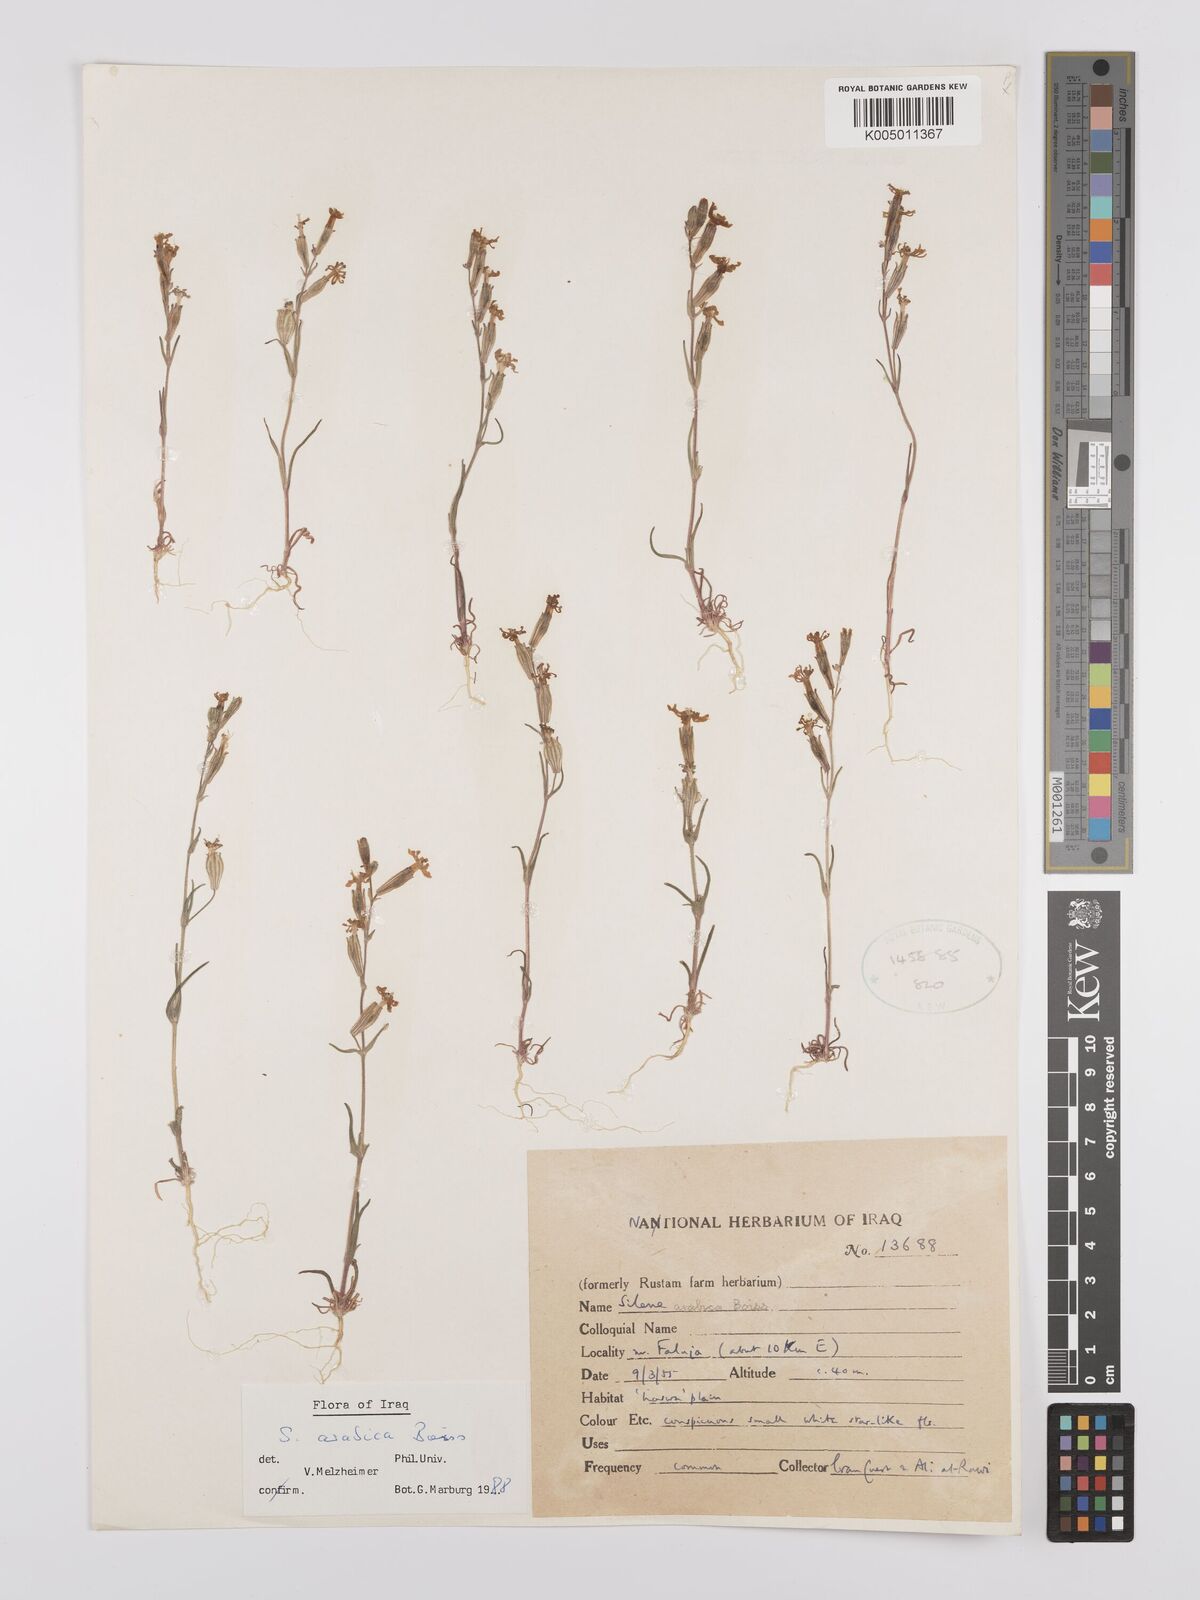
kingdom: Plantae
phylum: Tracheophyta
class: Magnoliopsida
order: Caryophyllales
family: Caryophyllaceae
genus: Silene
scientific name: Silene arabica
